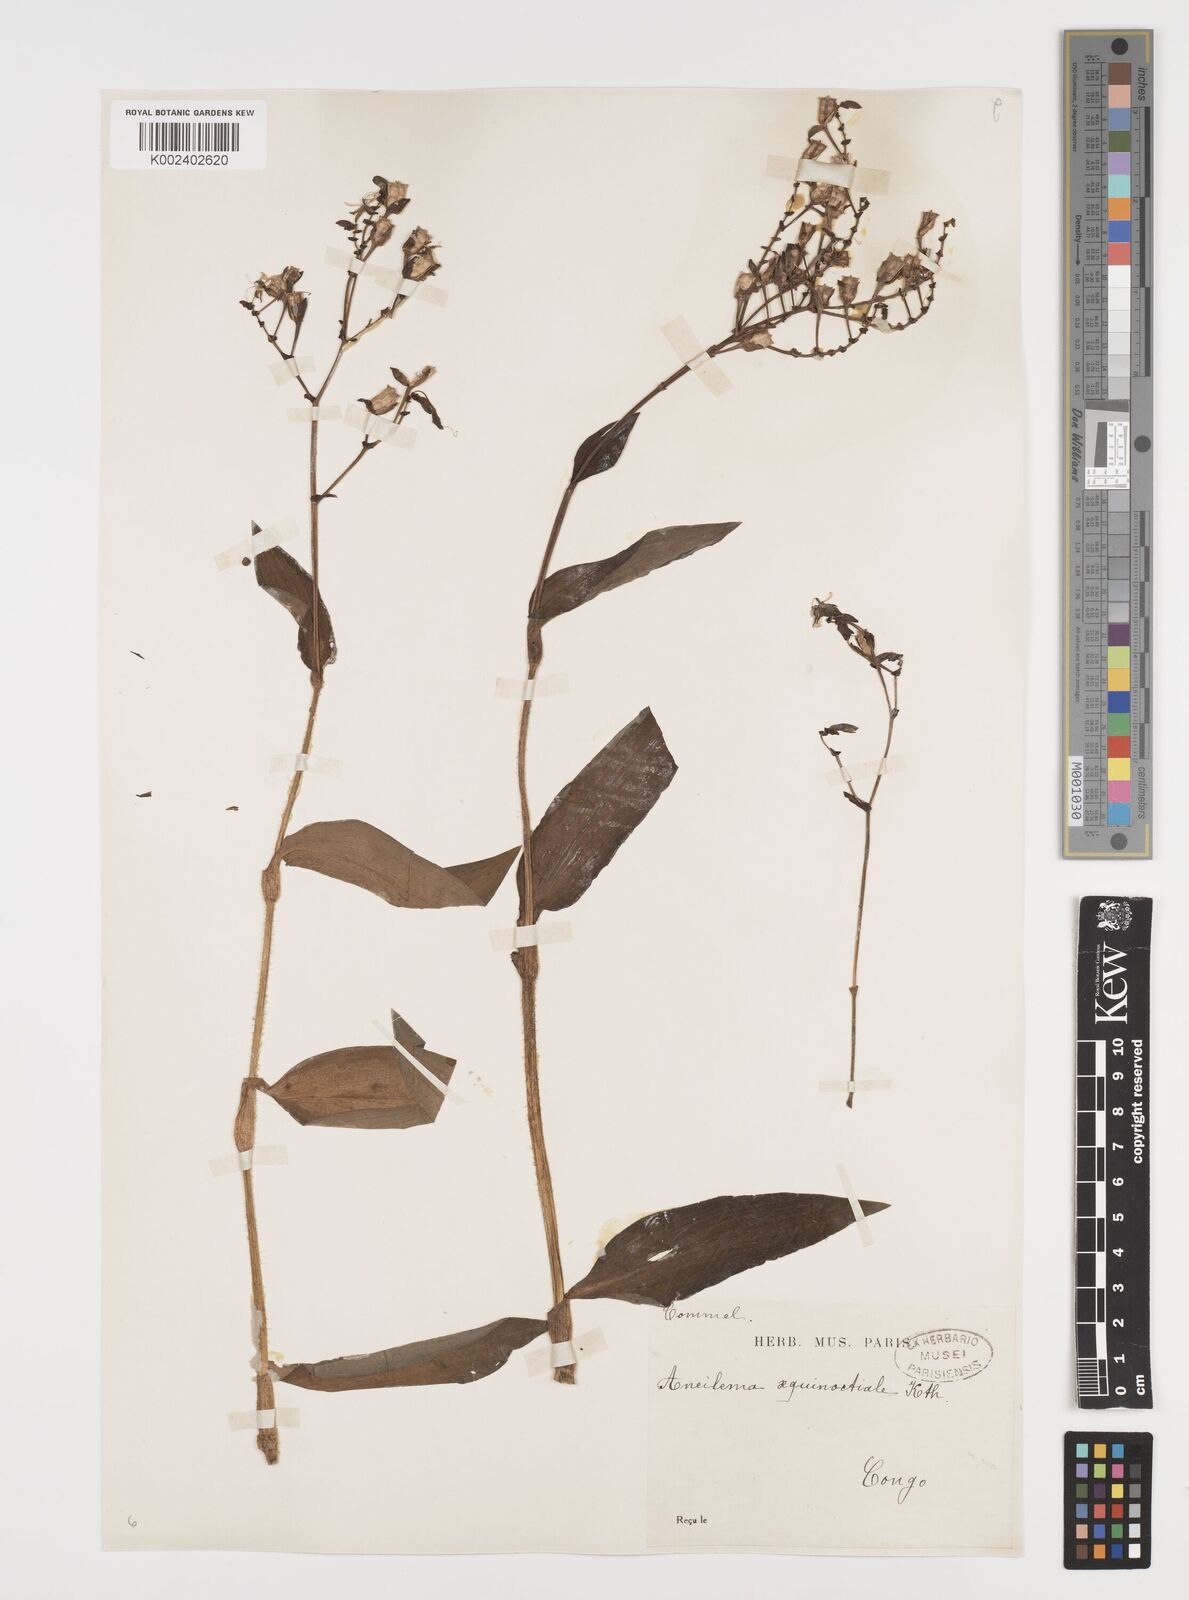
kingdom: Plantae
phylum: Tracheophyta
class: Liliopsida
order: Commelinales
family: Commelinaceae
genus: Aneilema
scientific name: Aneilema aequinoctiale
